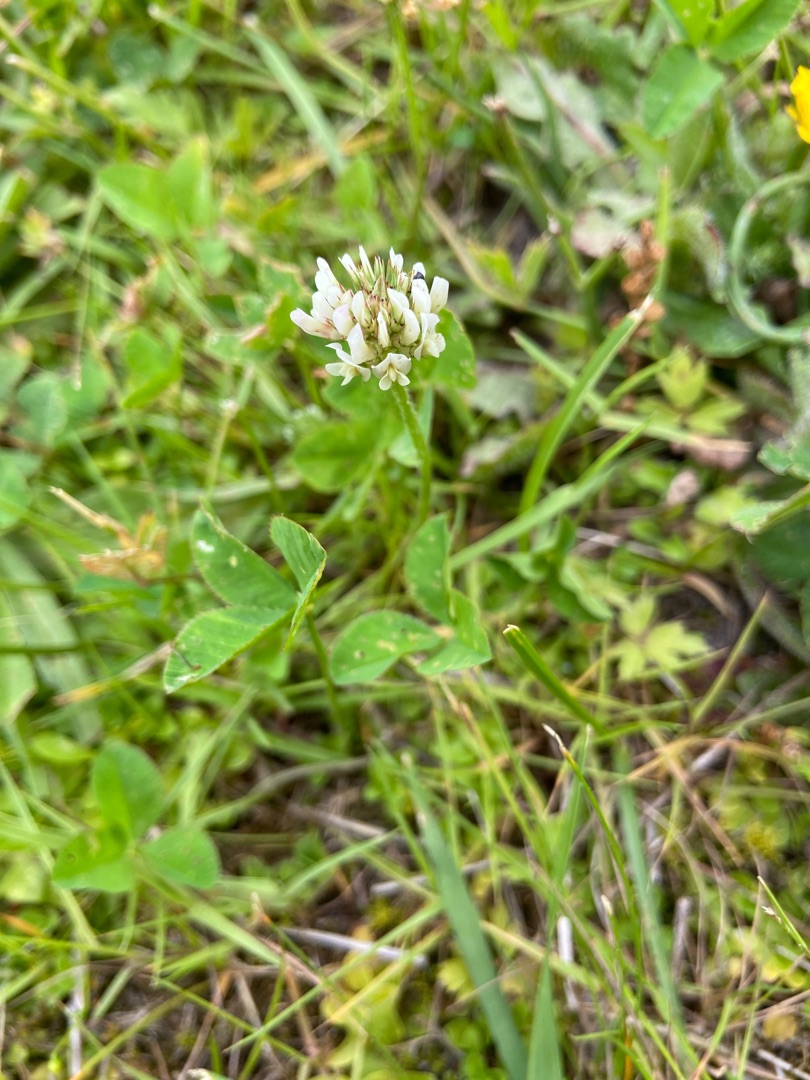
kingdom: Plantae
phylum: Tracheophyta
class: Magnoliopsida
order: Fabales
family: Fabaceae
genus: Trifolium
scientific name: Trifolium repens
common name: Hvid-kløver
